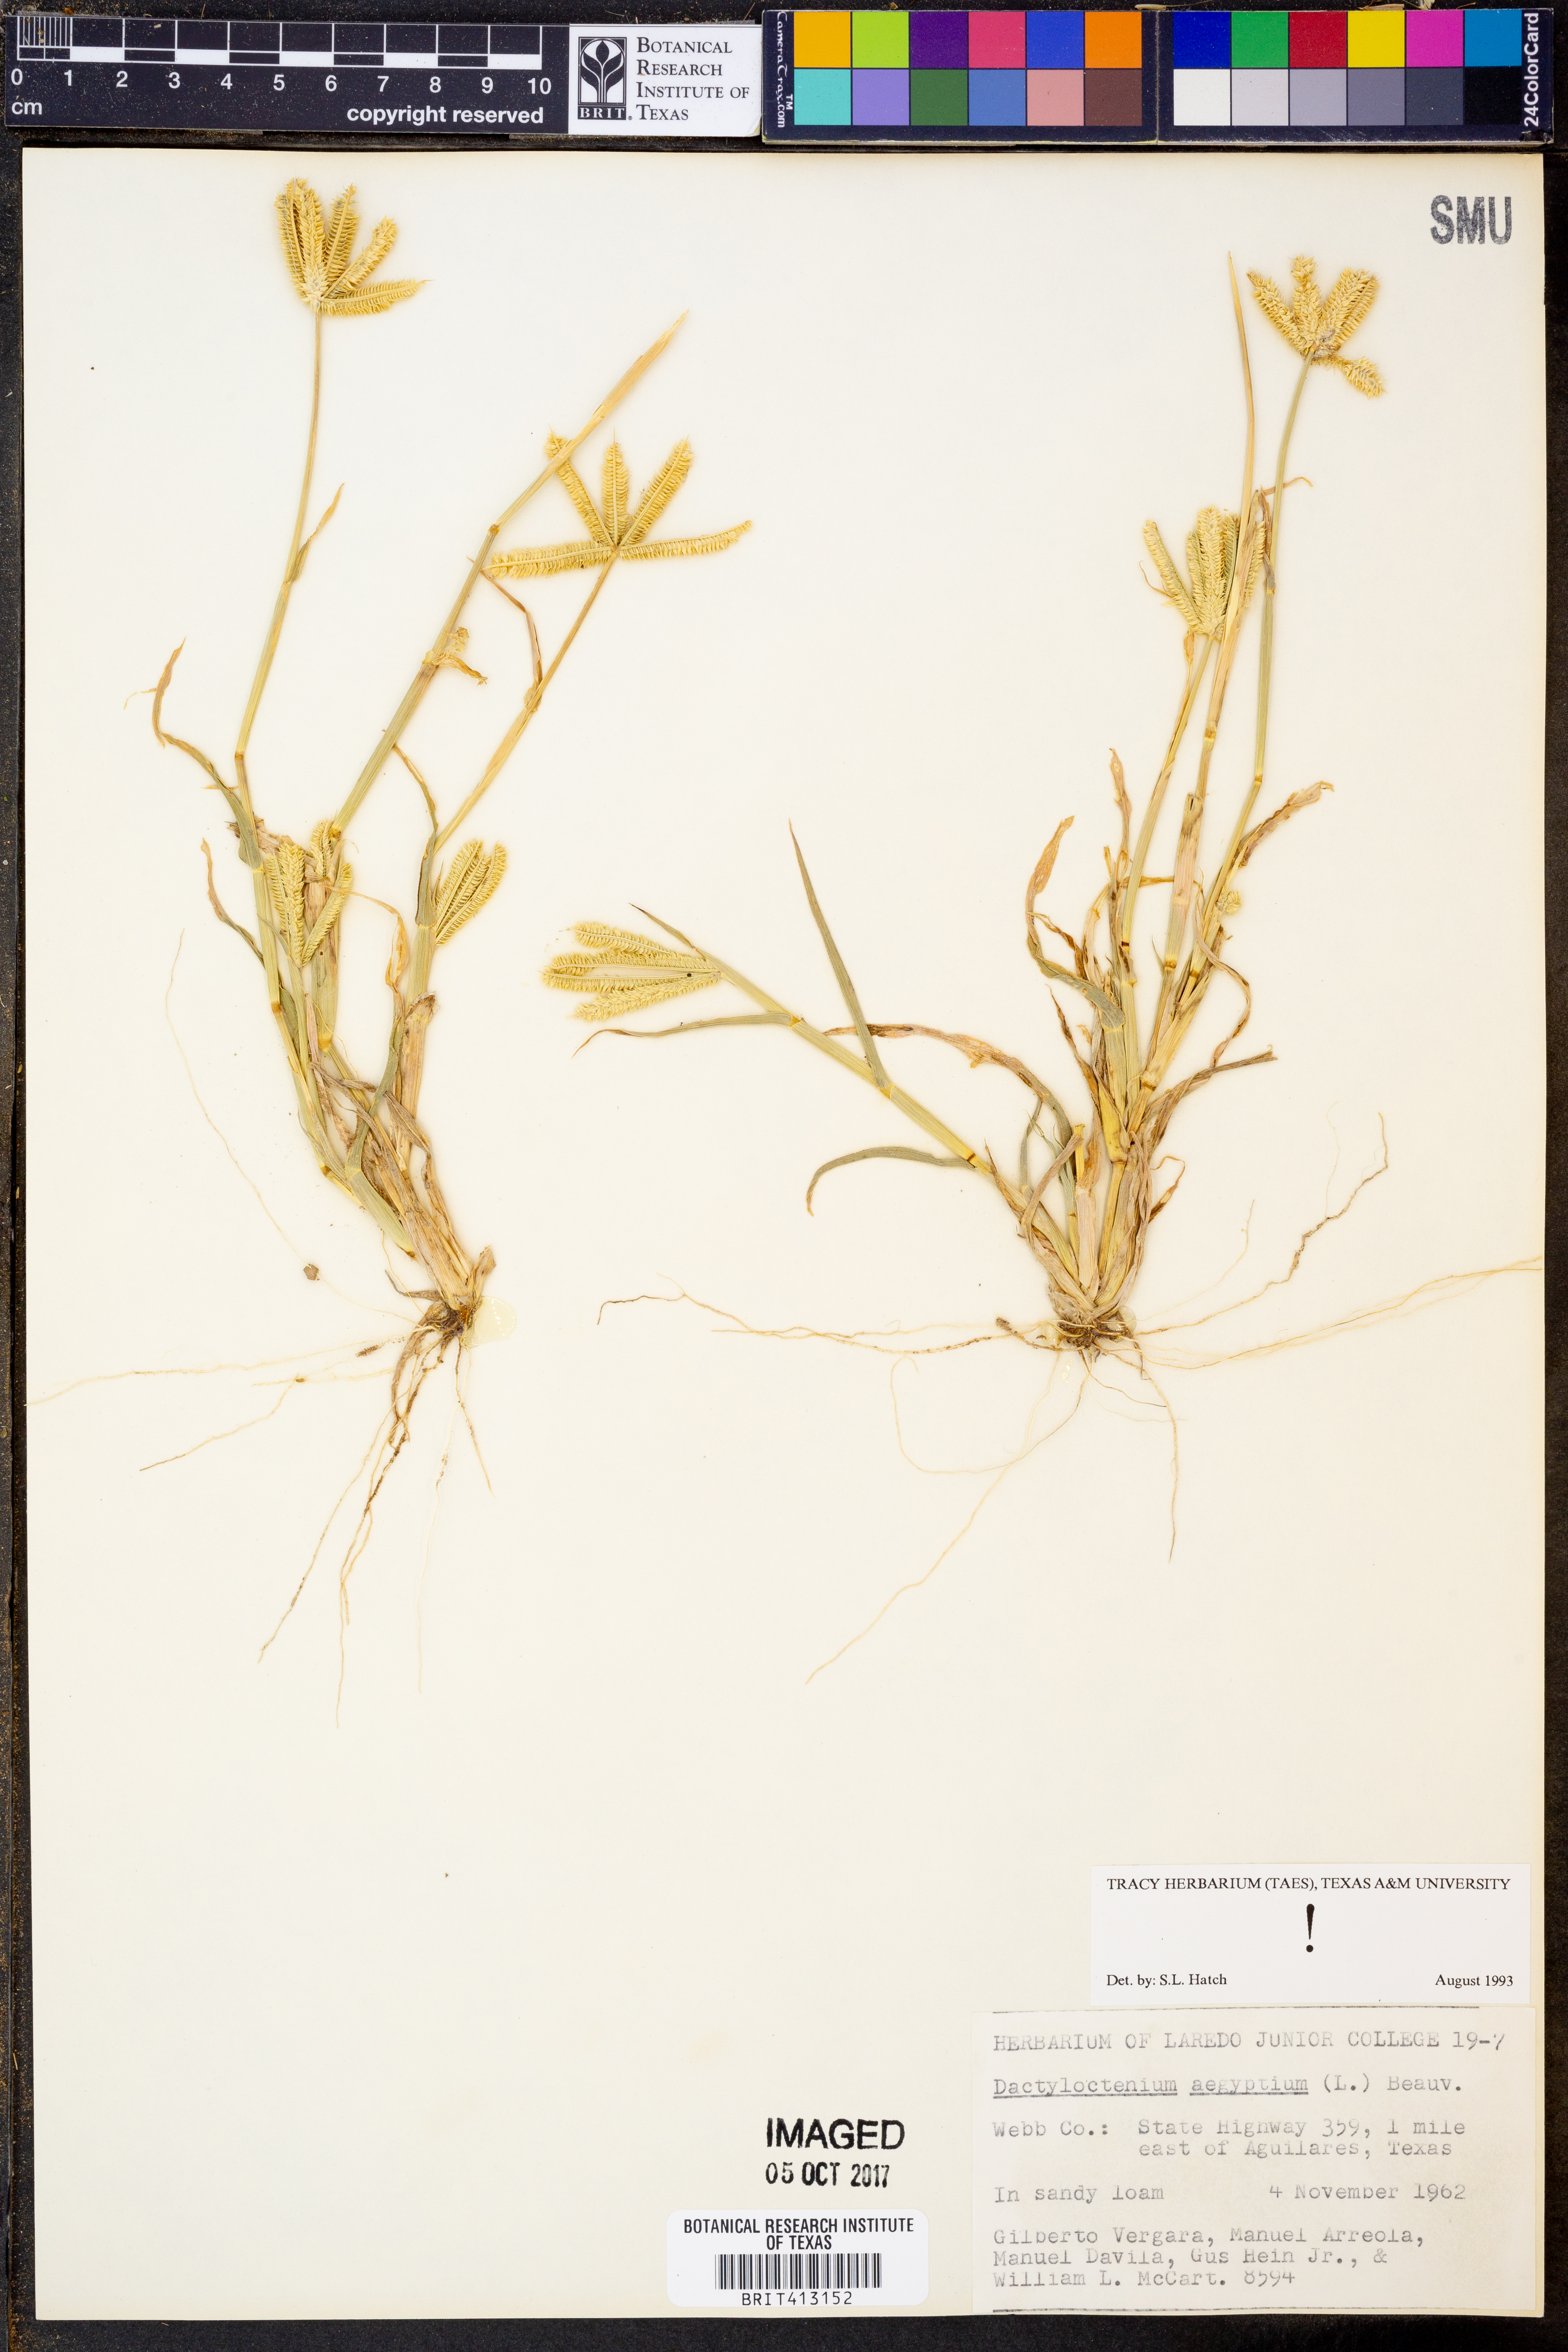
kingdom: Plantae
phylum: Tracheophyta
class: Liliopsida
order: Poales
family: Poaceae
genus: Dactyloctenium
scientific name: Dactyloctenium aegyptium
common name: Egyptian grass
